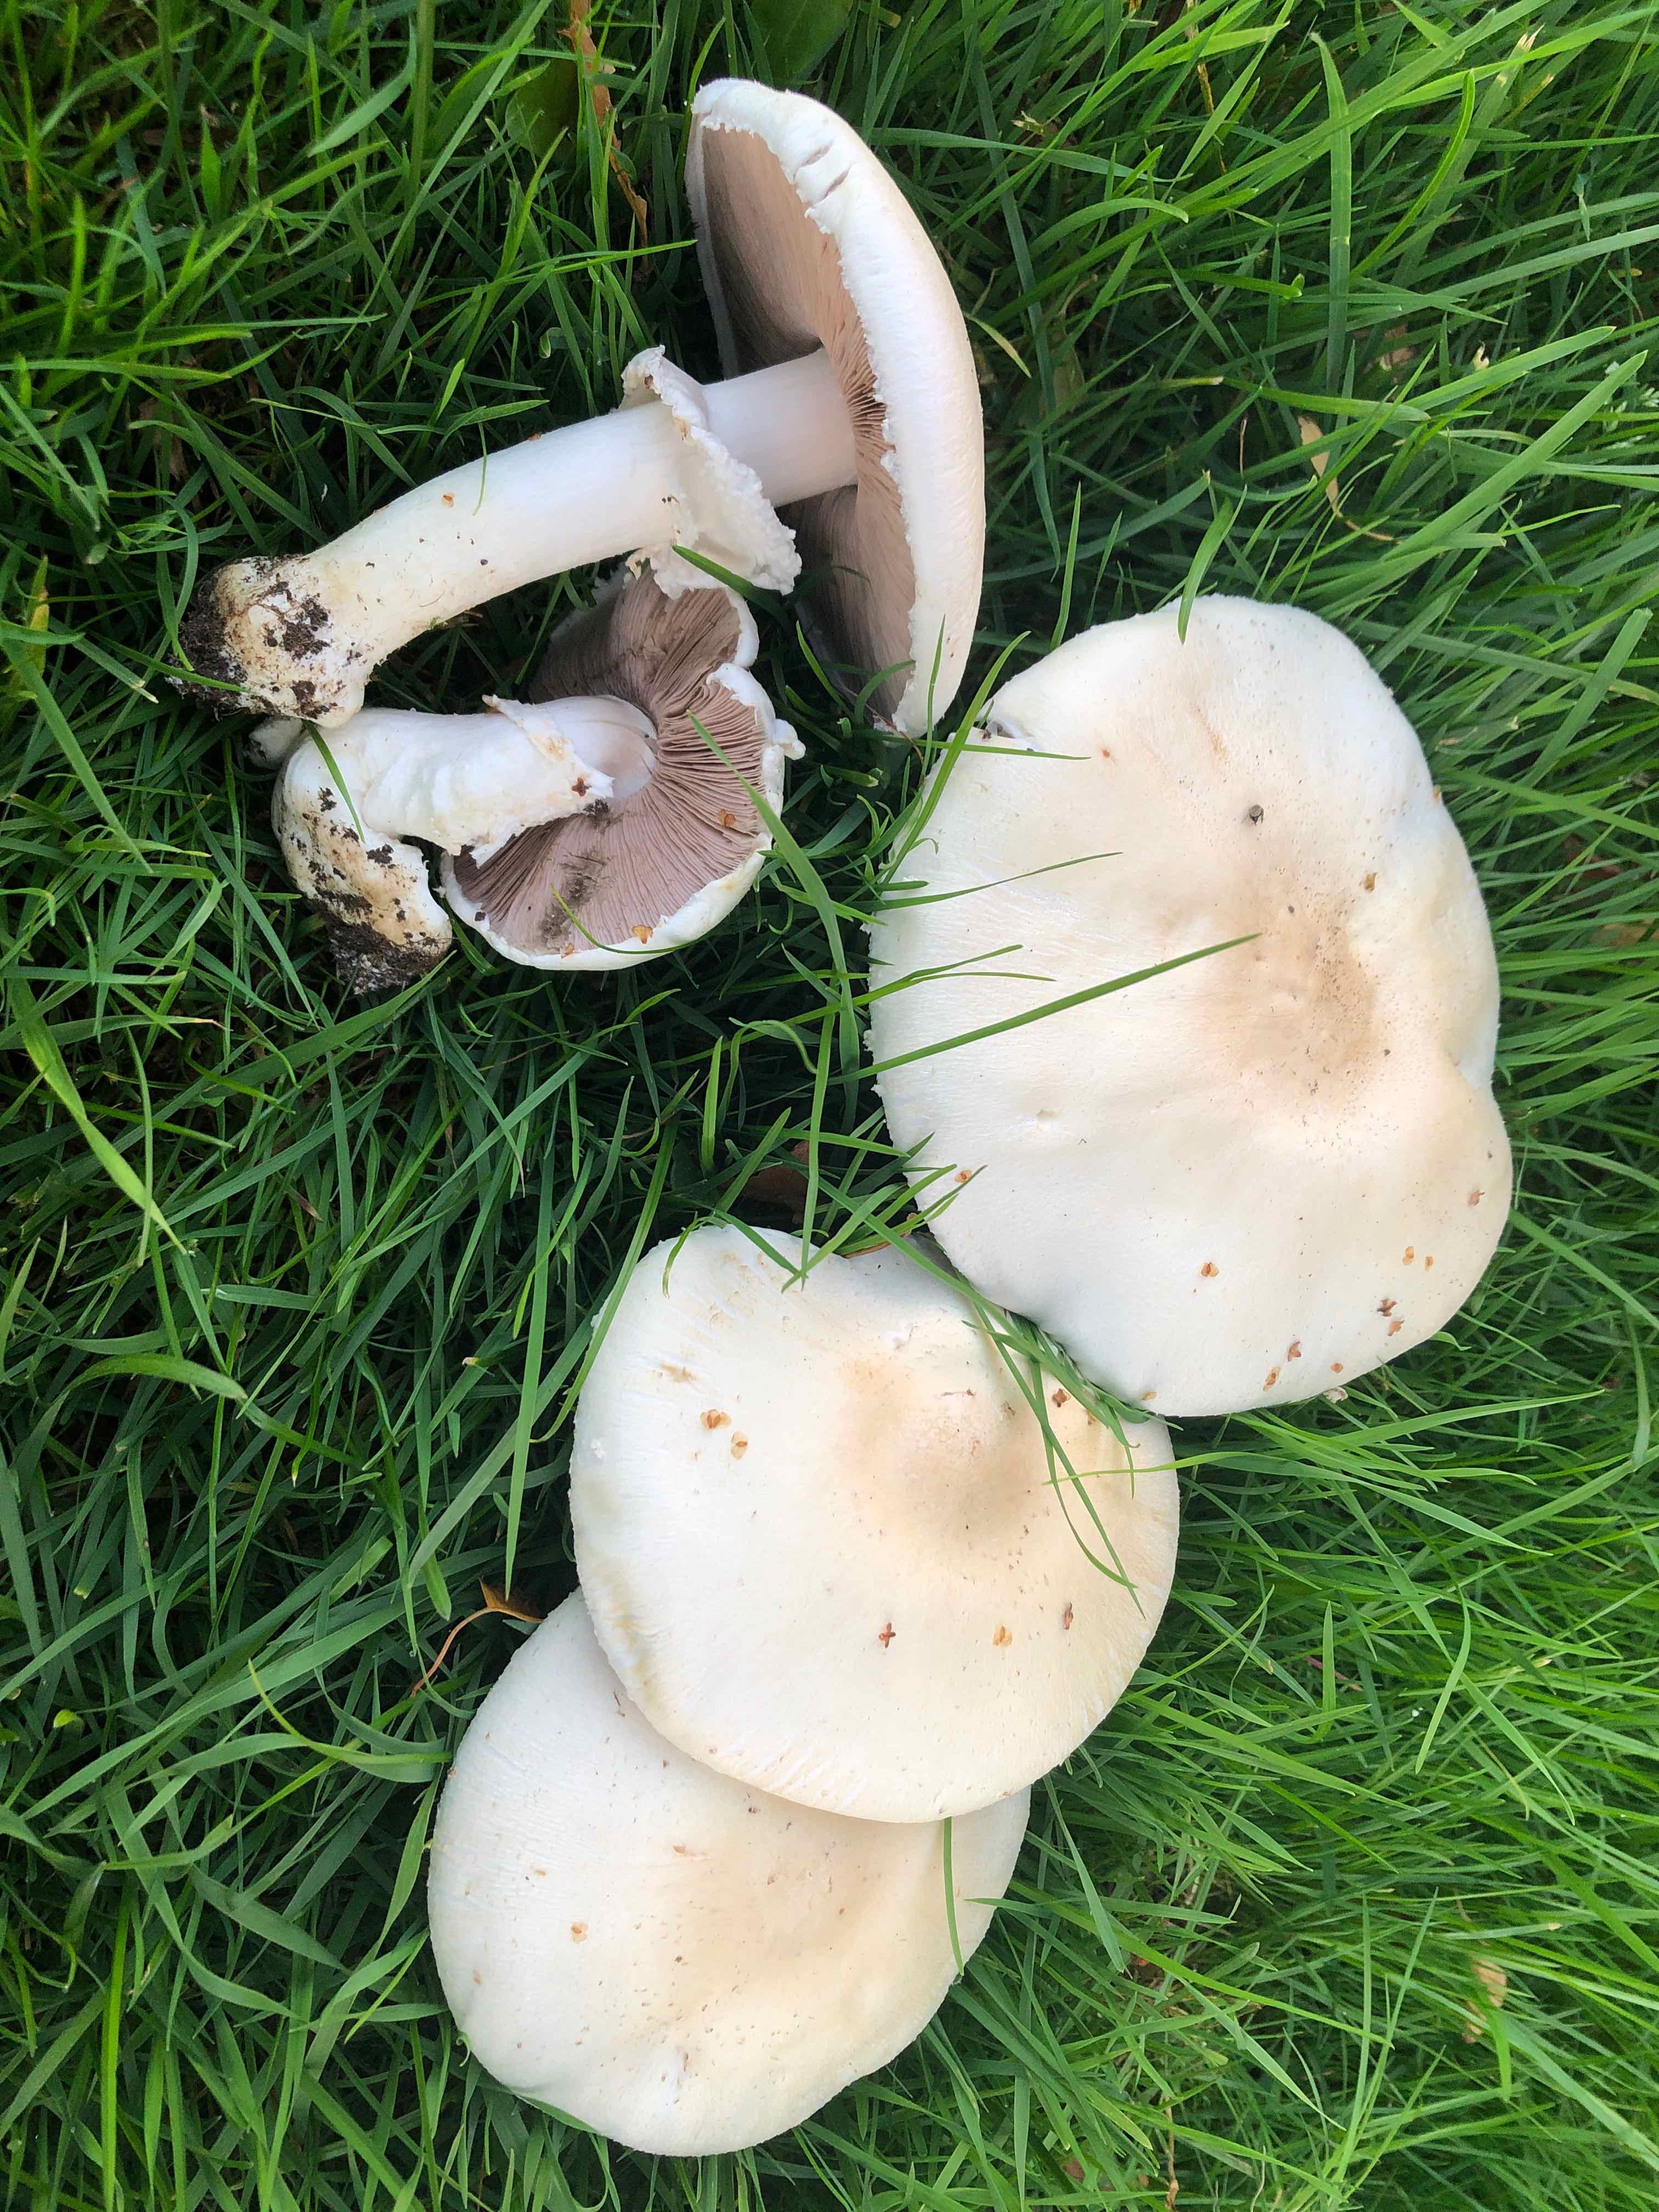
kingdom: Fungi
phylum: Basidiomycota
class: Agaricomycetes
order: Agaricales
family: Agaricaceae
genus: Agaricus
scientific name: Agaricus arvensis
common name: ager-champignon
